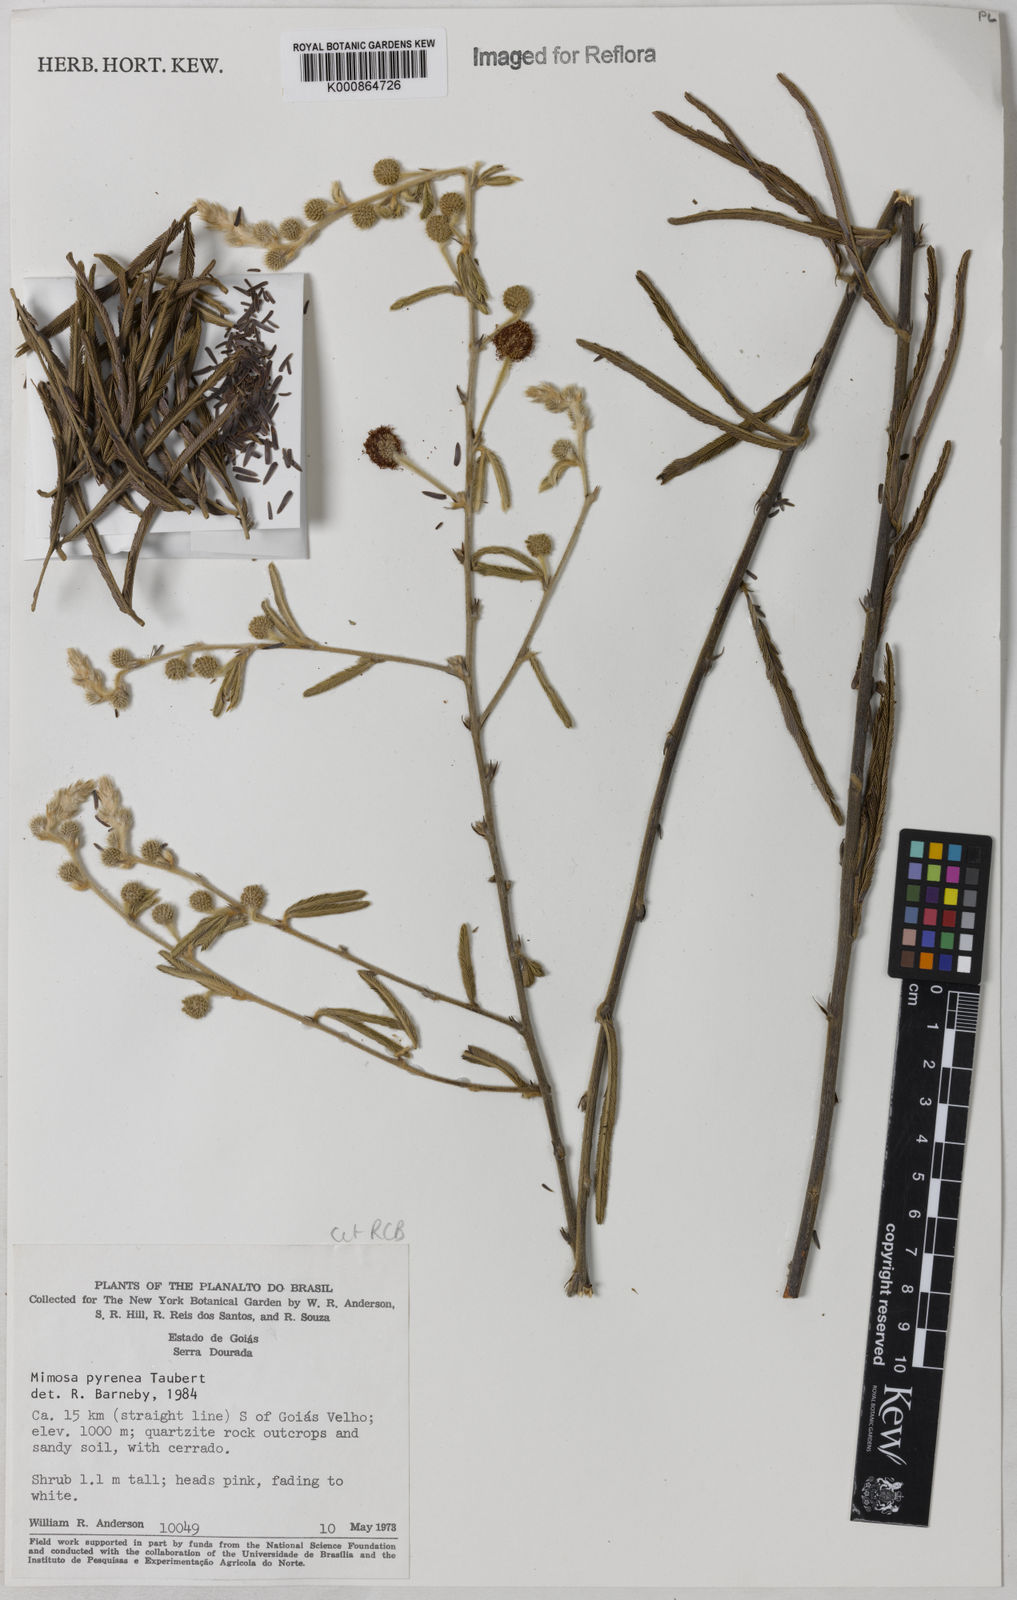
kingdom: Plantae
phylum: Tracheophyta
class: Magnoliopsida
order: Fabales
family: Fabaceae
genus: Mimosa
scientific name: Mimosa pyrenea
